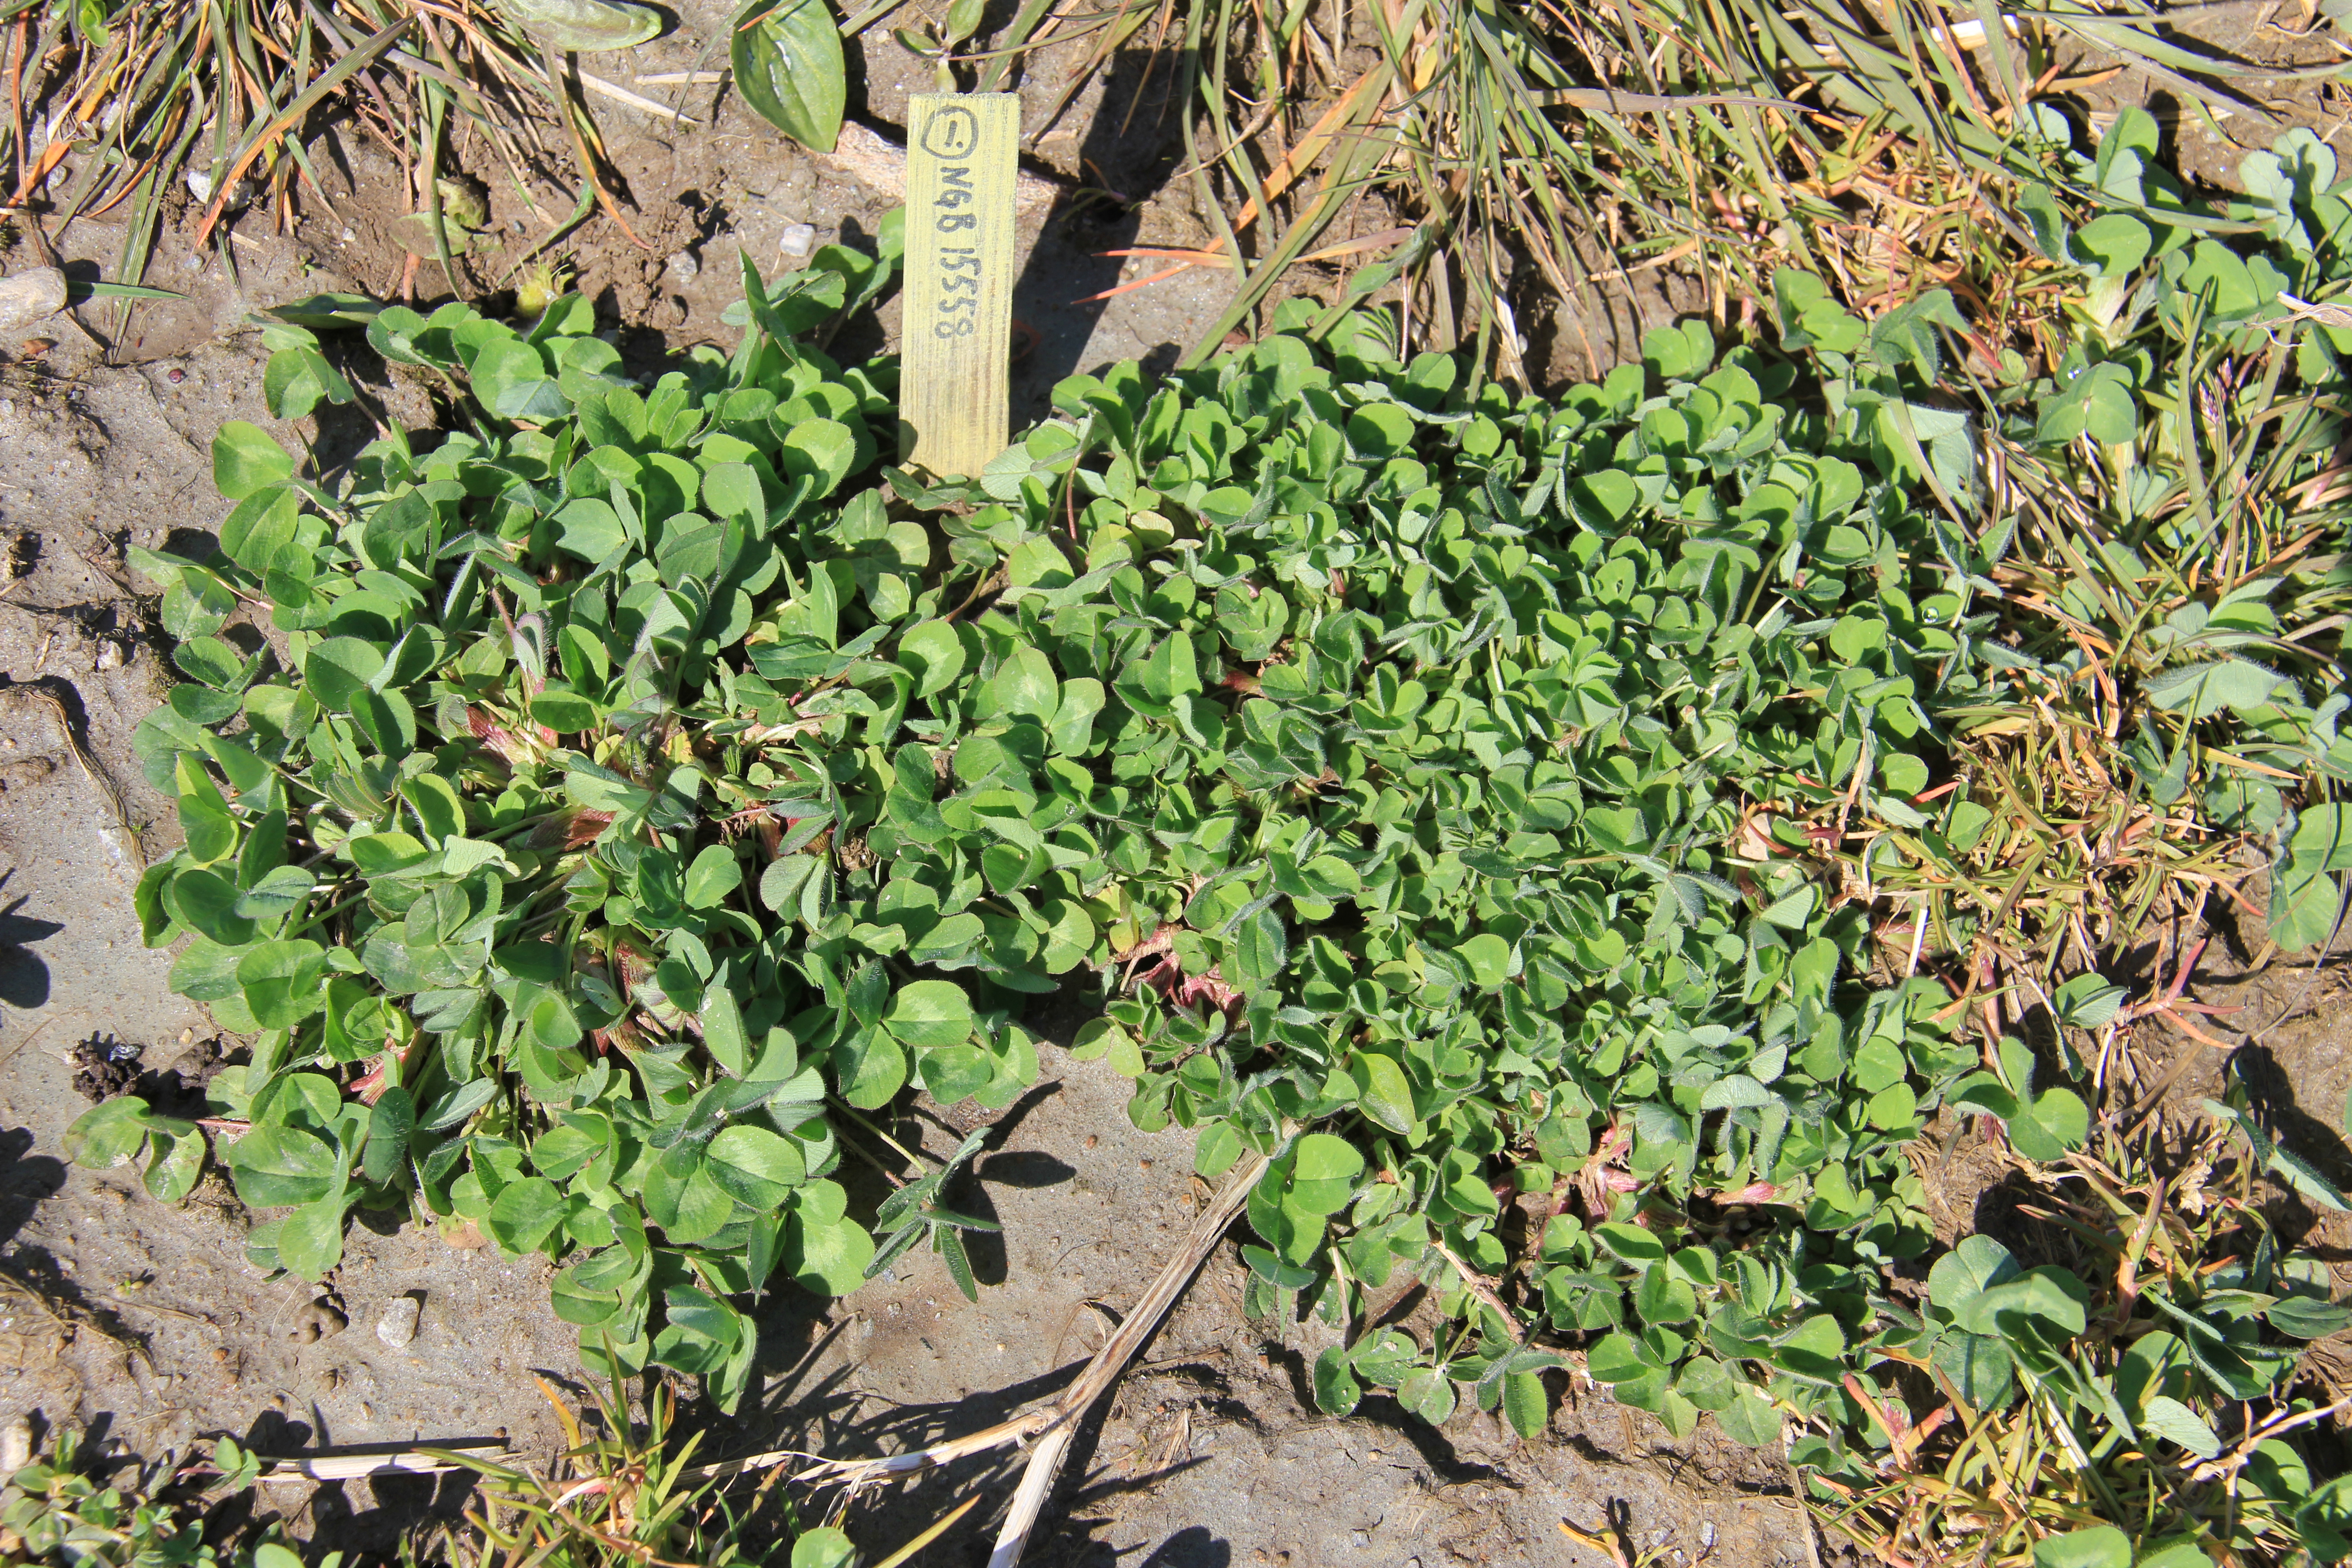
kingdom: Plantae
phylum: Tracheophyta
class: Magnoliopsida
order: Fabales
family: Fabaceae
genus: Trifolium
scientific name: Trifolium pratense
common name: Red clover
